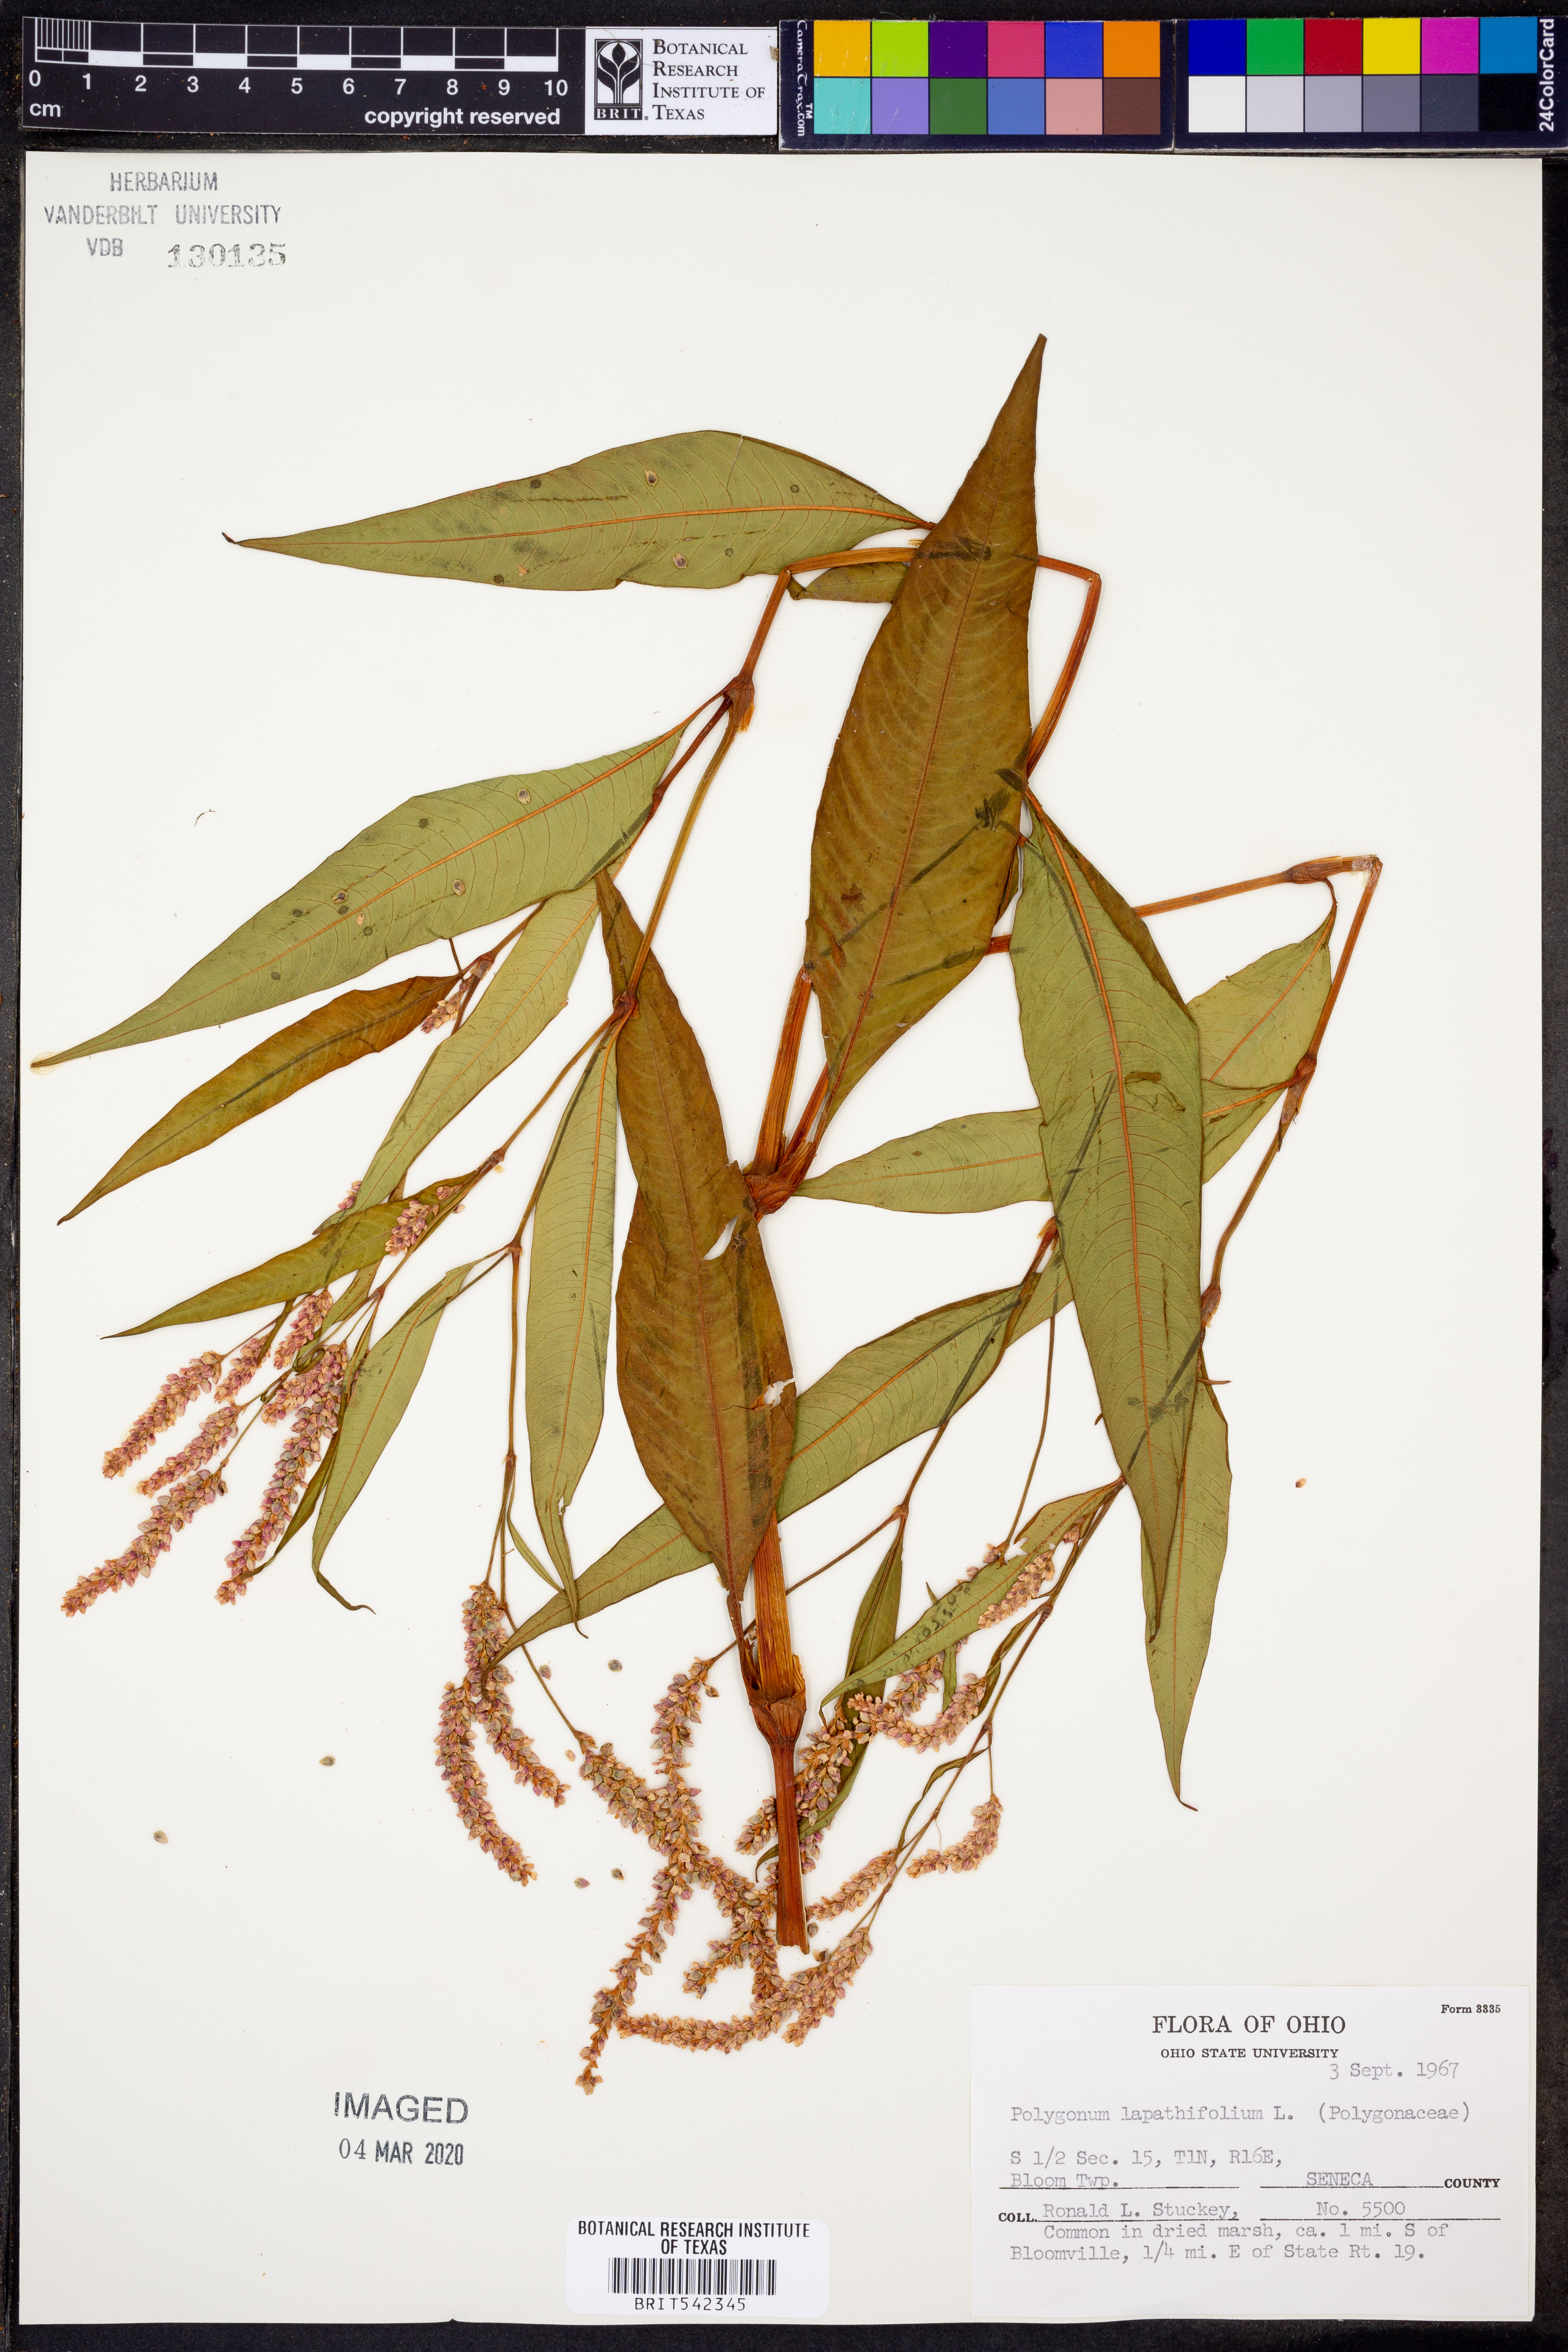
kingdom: Plantae
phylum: Tracheophyta
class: Magnoliopsida
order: Caryophyllales
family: Polygonaceae
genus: Persicaria
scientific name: Persicaria lapathifolia
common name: Curlytop knotweed
